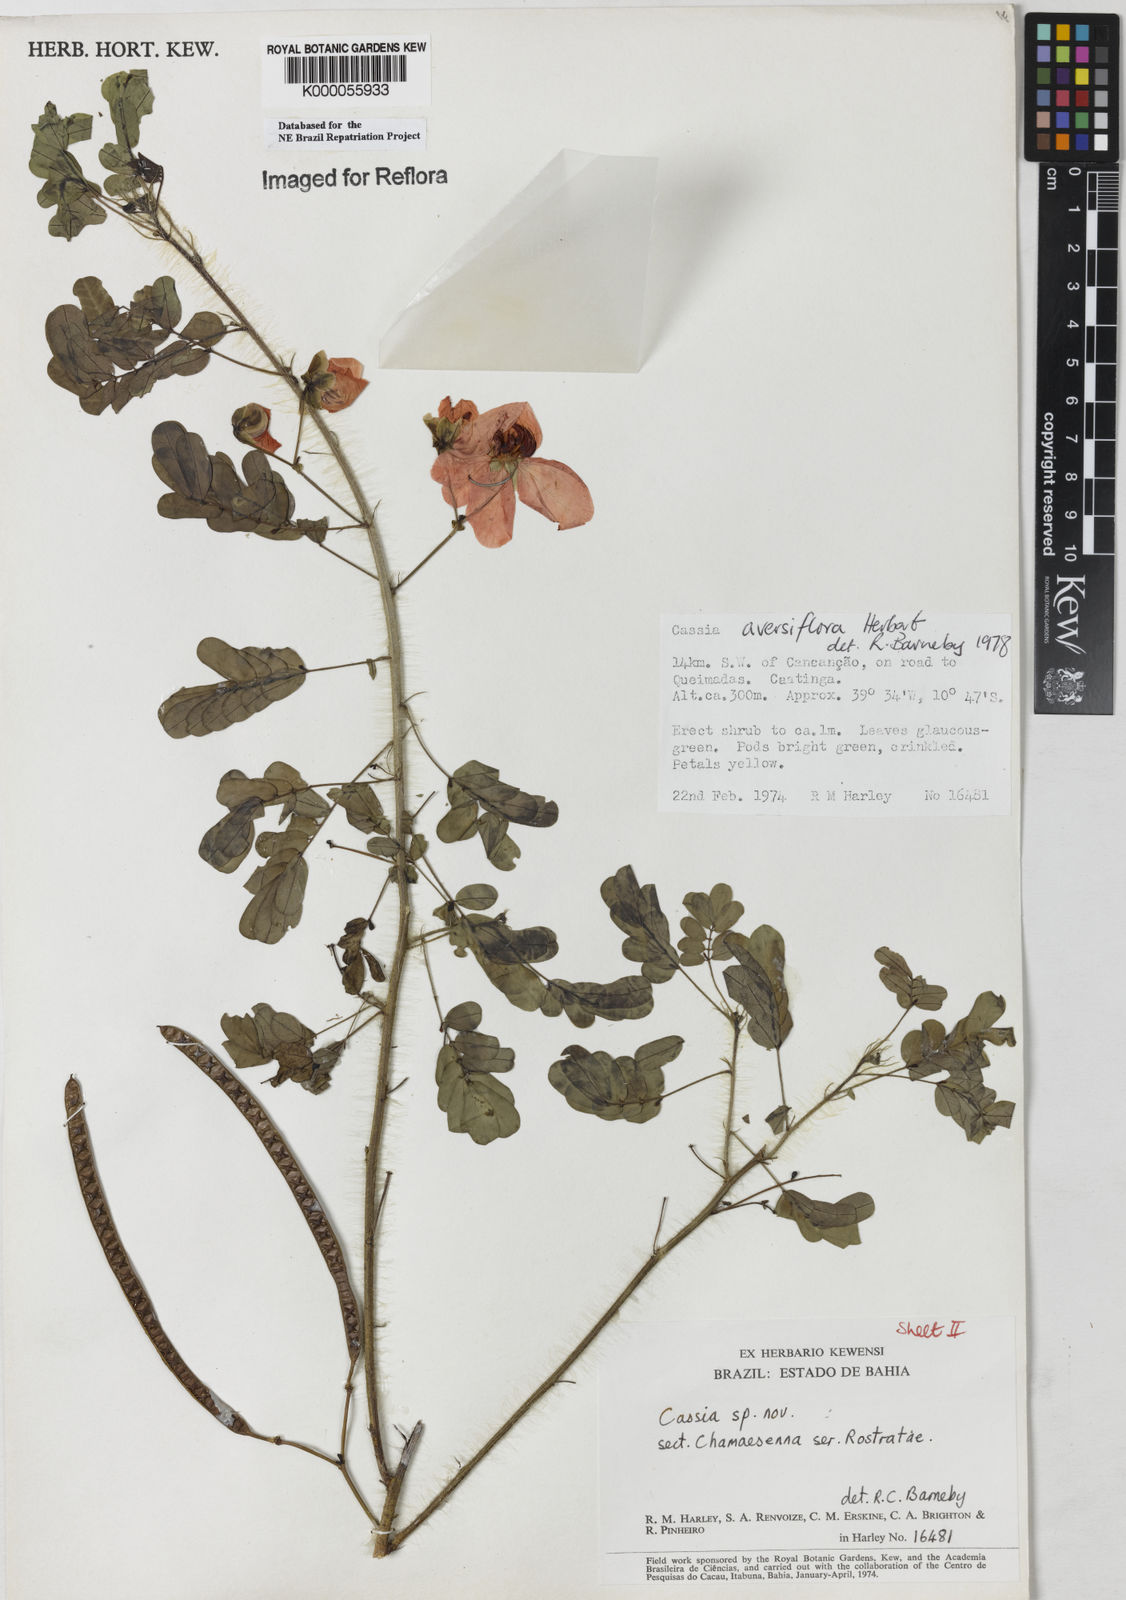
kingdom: Plantae
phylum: Tracheophyta
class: Magnoliopsida
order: Fabales
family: Fabaceae
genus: Senna
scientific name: Senna aversiflora
